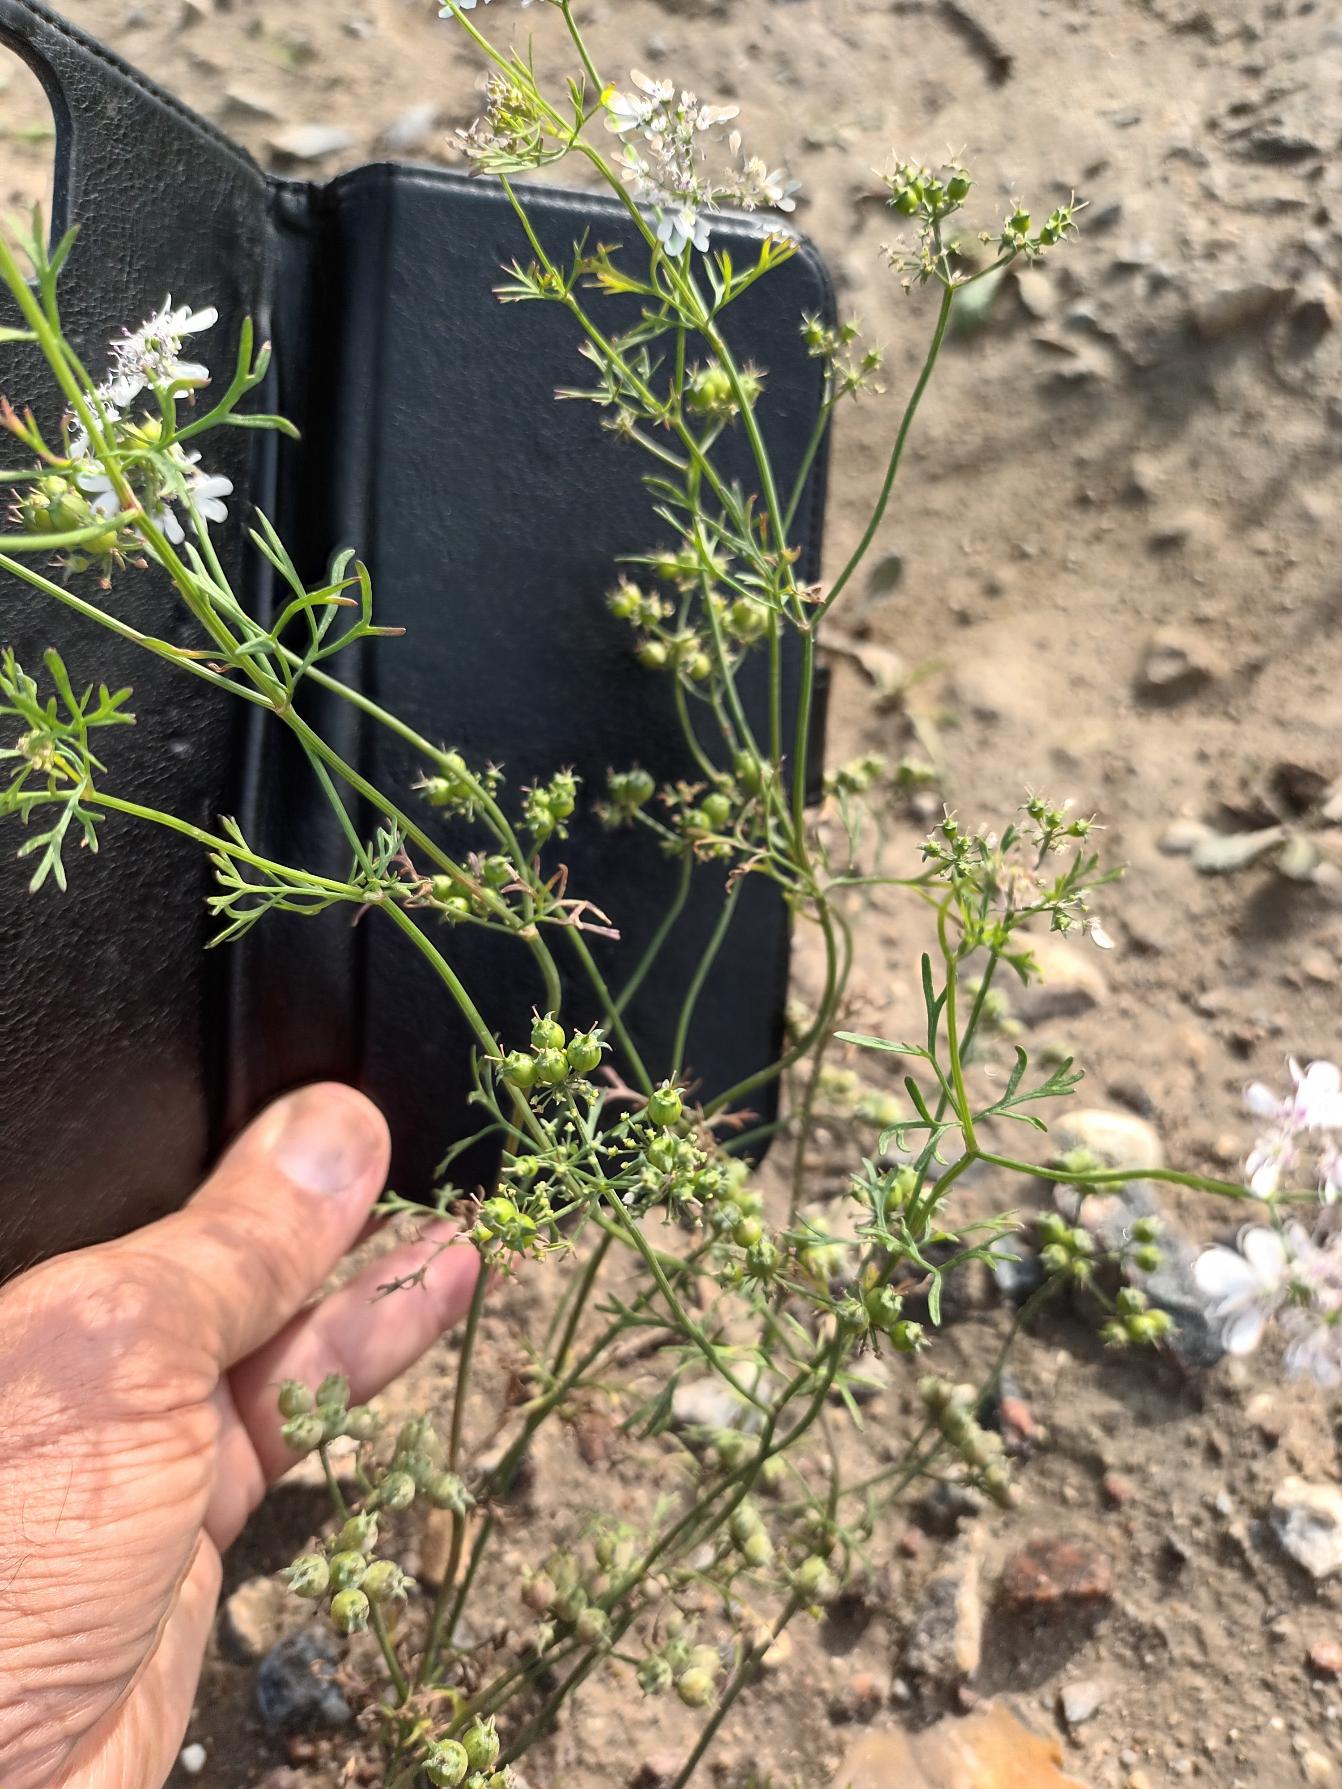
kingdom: Plantae
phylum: Tracheophyta
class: Magnoliopsida
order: Apiales
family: Apiaceae
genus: Coriandrum
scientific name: Coriandrum sativum
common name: Koriander
